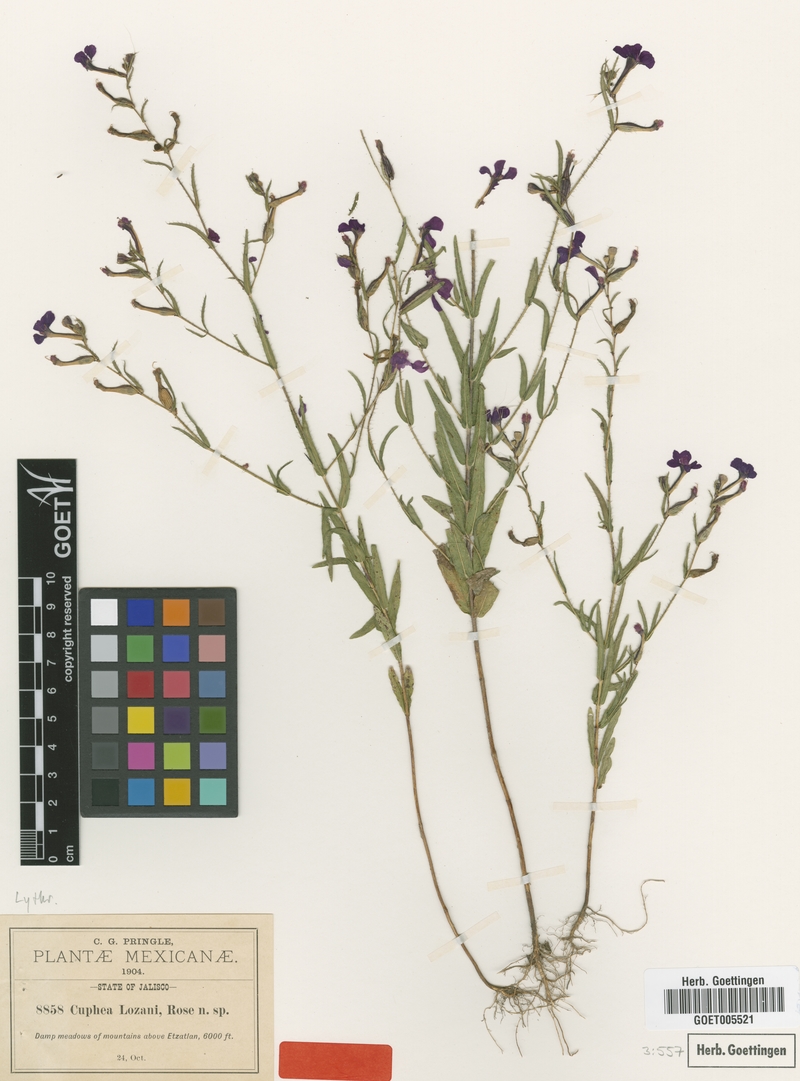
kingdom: Plantae
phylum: Tracheophyta
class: Magnoliopsida
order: Myrtales
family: Lythraceae
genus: Cuphea
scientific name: Cuphea lozani
